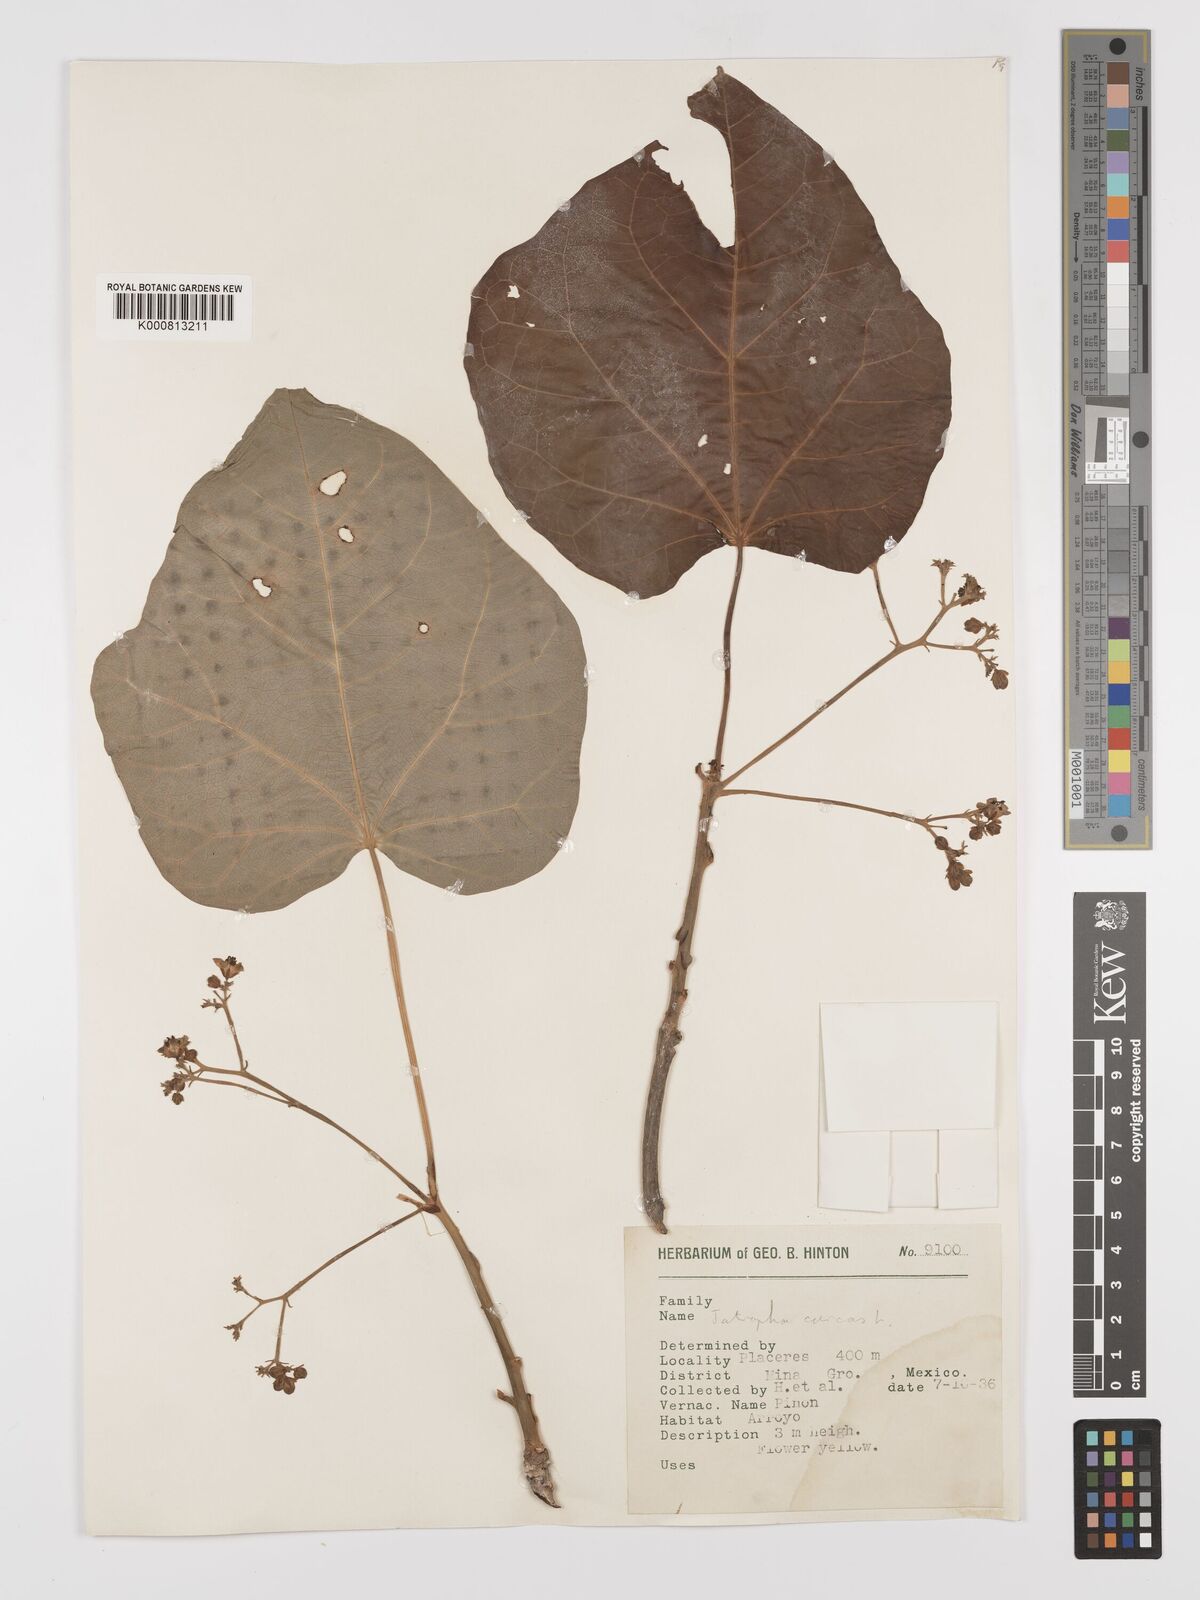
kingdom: Plantae
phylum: Tracheophyta
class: Magnoliopsida
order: Malpighiales
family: Euphorbiaceae
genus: Jatropha
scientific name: Jatropha curcas
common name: Barbados nut
